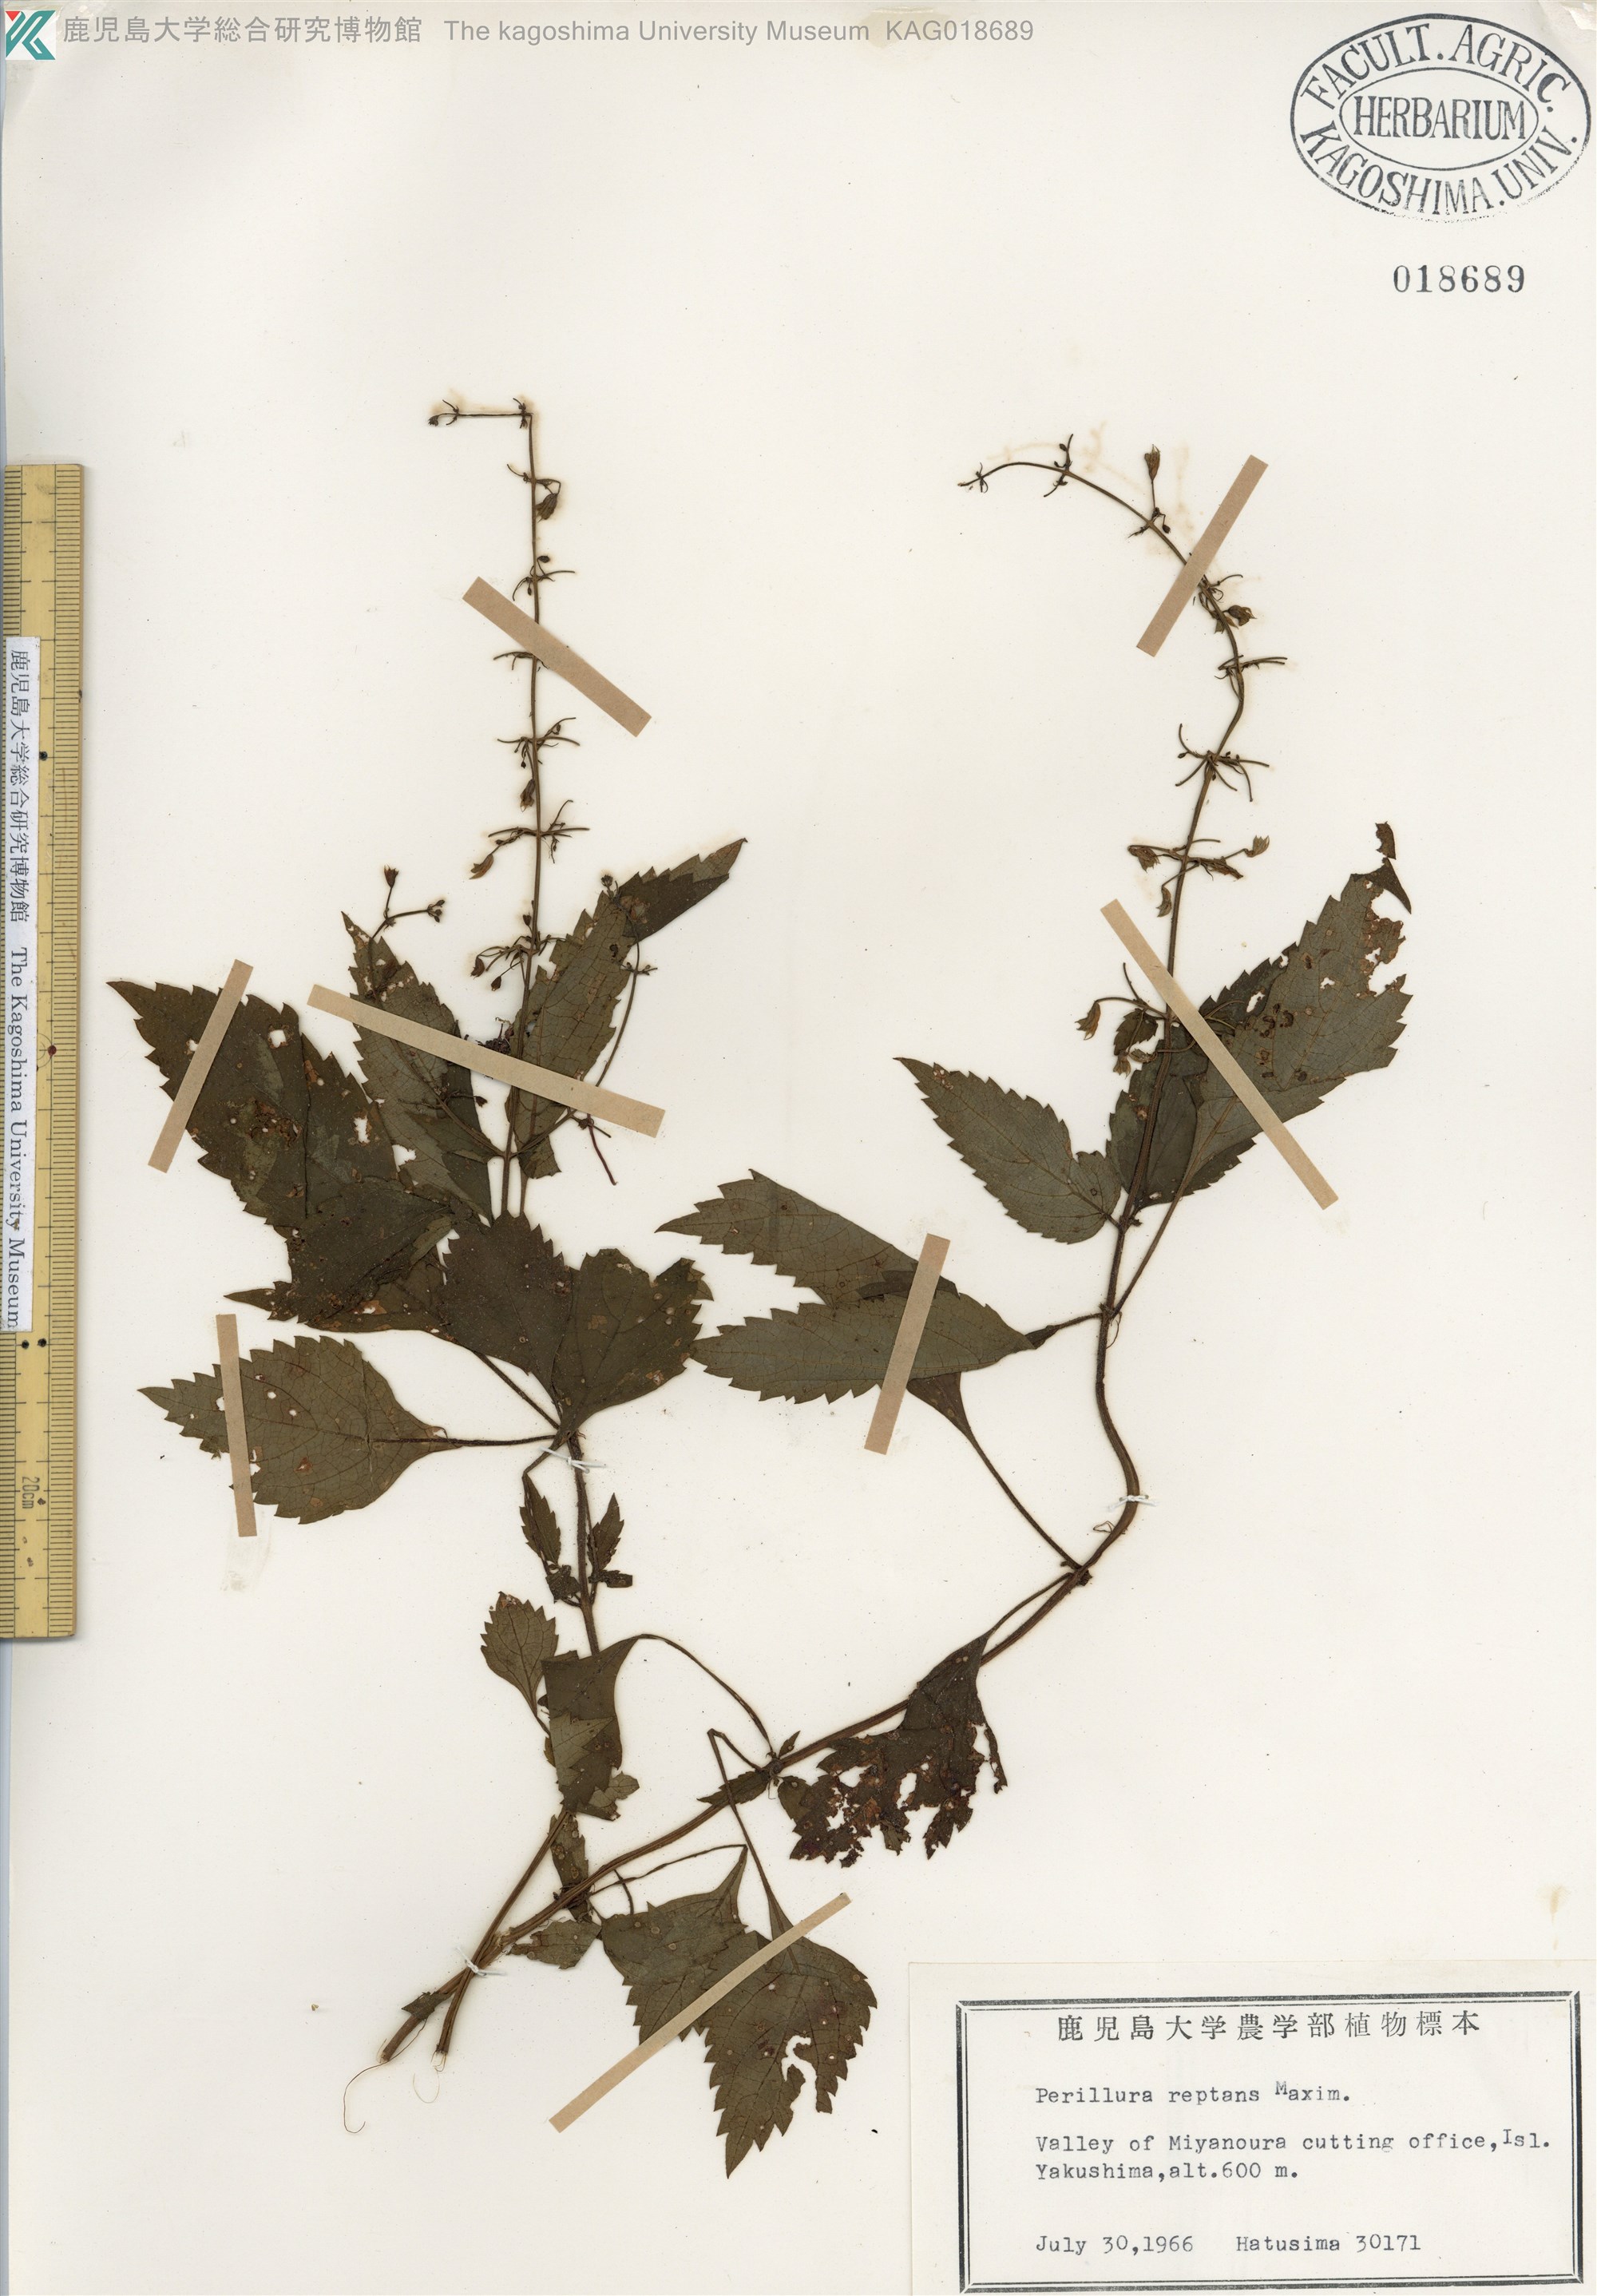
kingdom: Plantae
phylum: Tracheophyta
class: Magnoliopsida
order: Lamiales
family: Lamiaceae
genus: Perillula
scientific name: Perillula reptans
